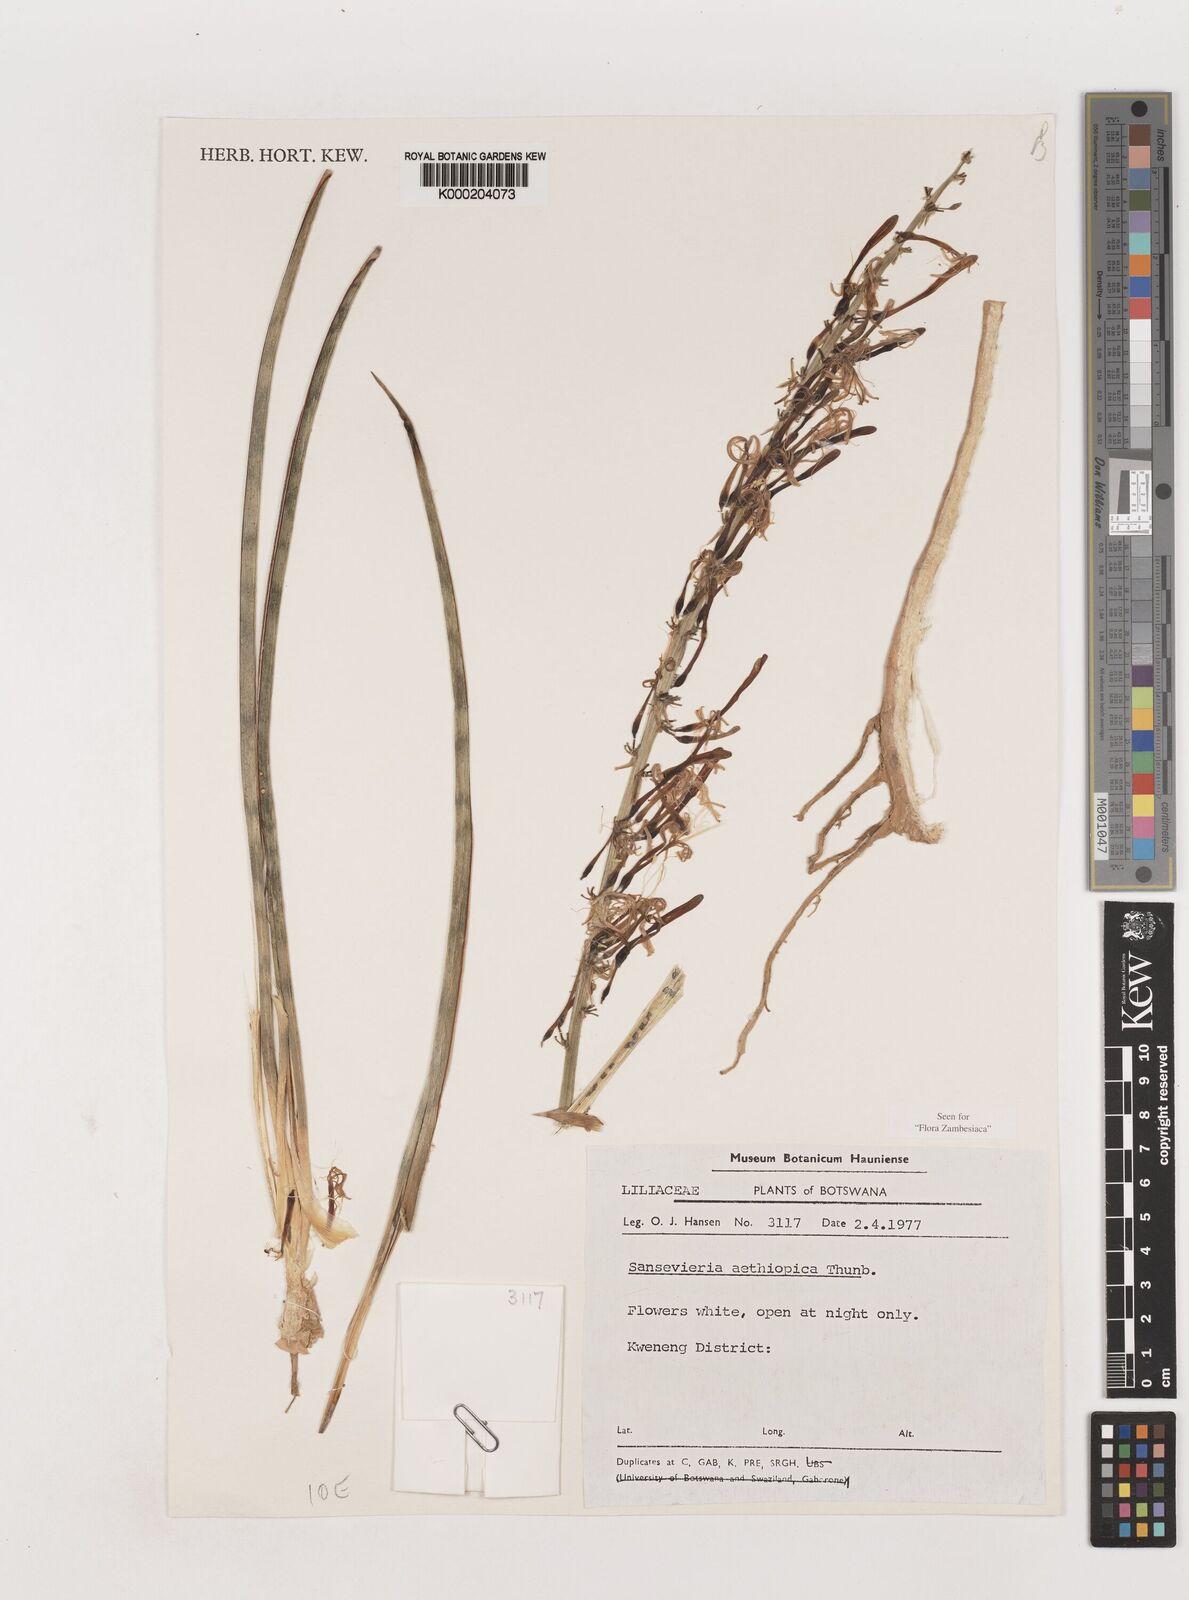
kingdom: Plantae
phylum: Tracheophyta
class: Liliopsida
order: Asparagales
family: Asparagaceae
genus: Dracaena
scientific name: Dracaena aethiopica
